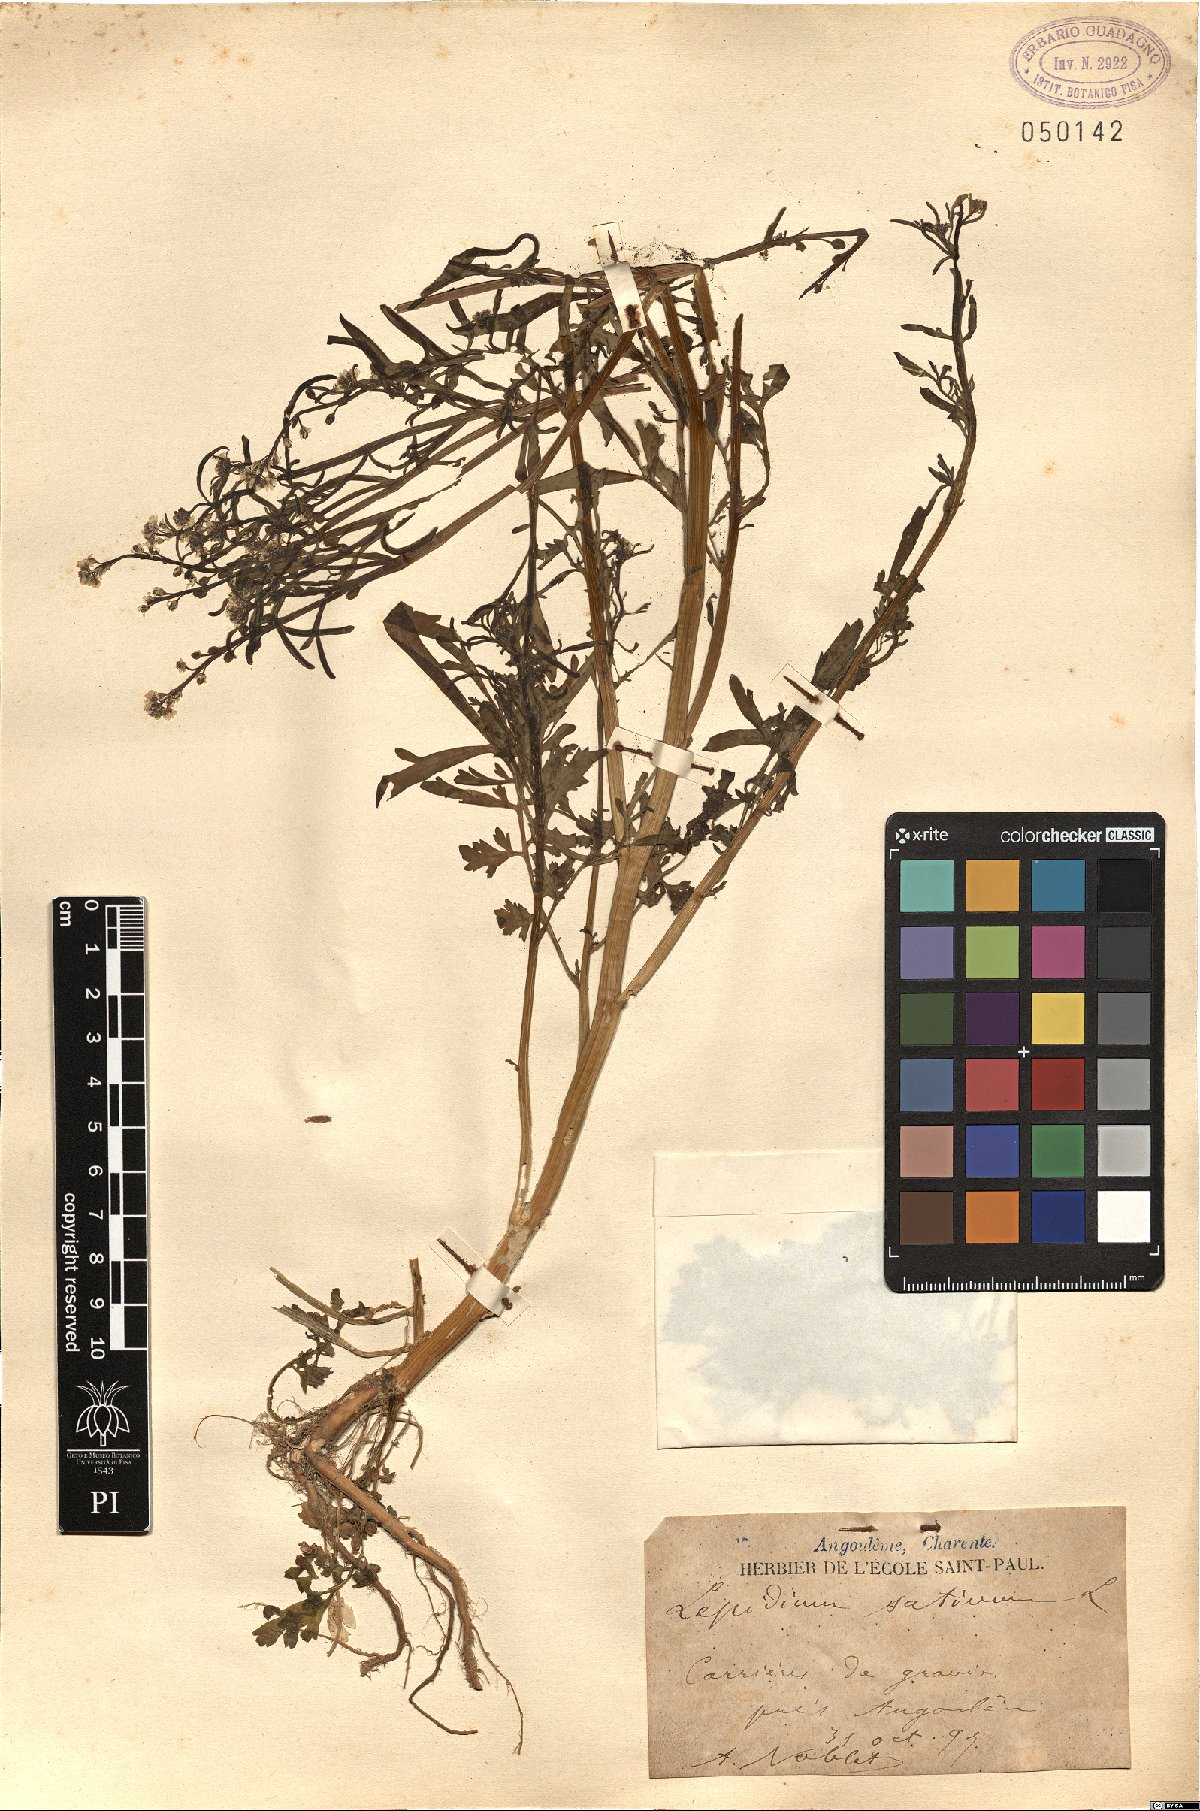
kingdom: Plantae
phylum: Tracheophyta
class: Magnoliopsida
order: Brassicales
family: Brassicaceae
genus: Lepidium
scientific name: Lepidium sativum
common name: Garden cress
